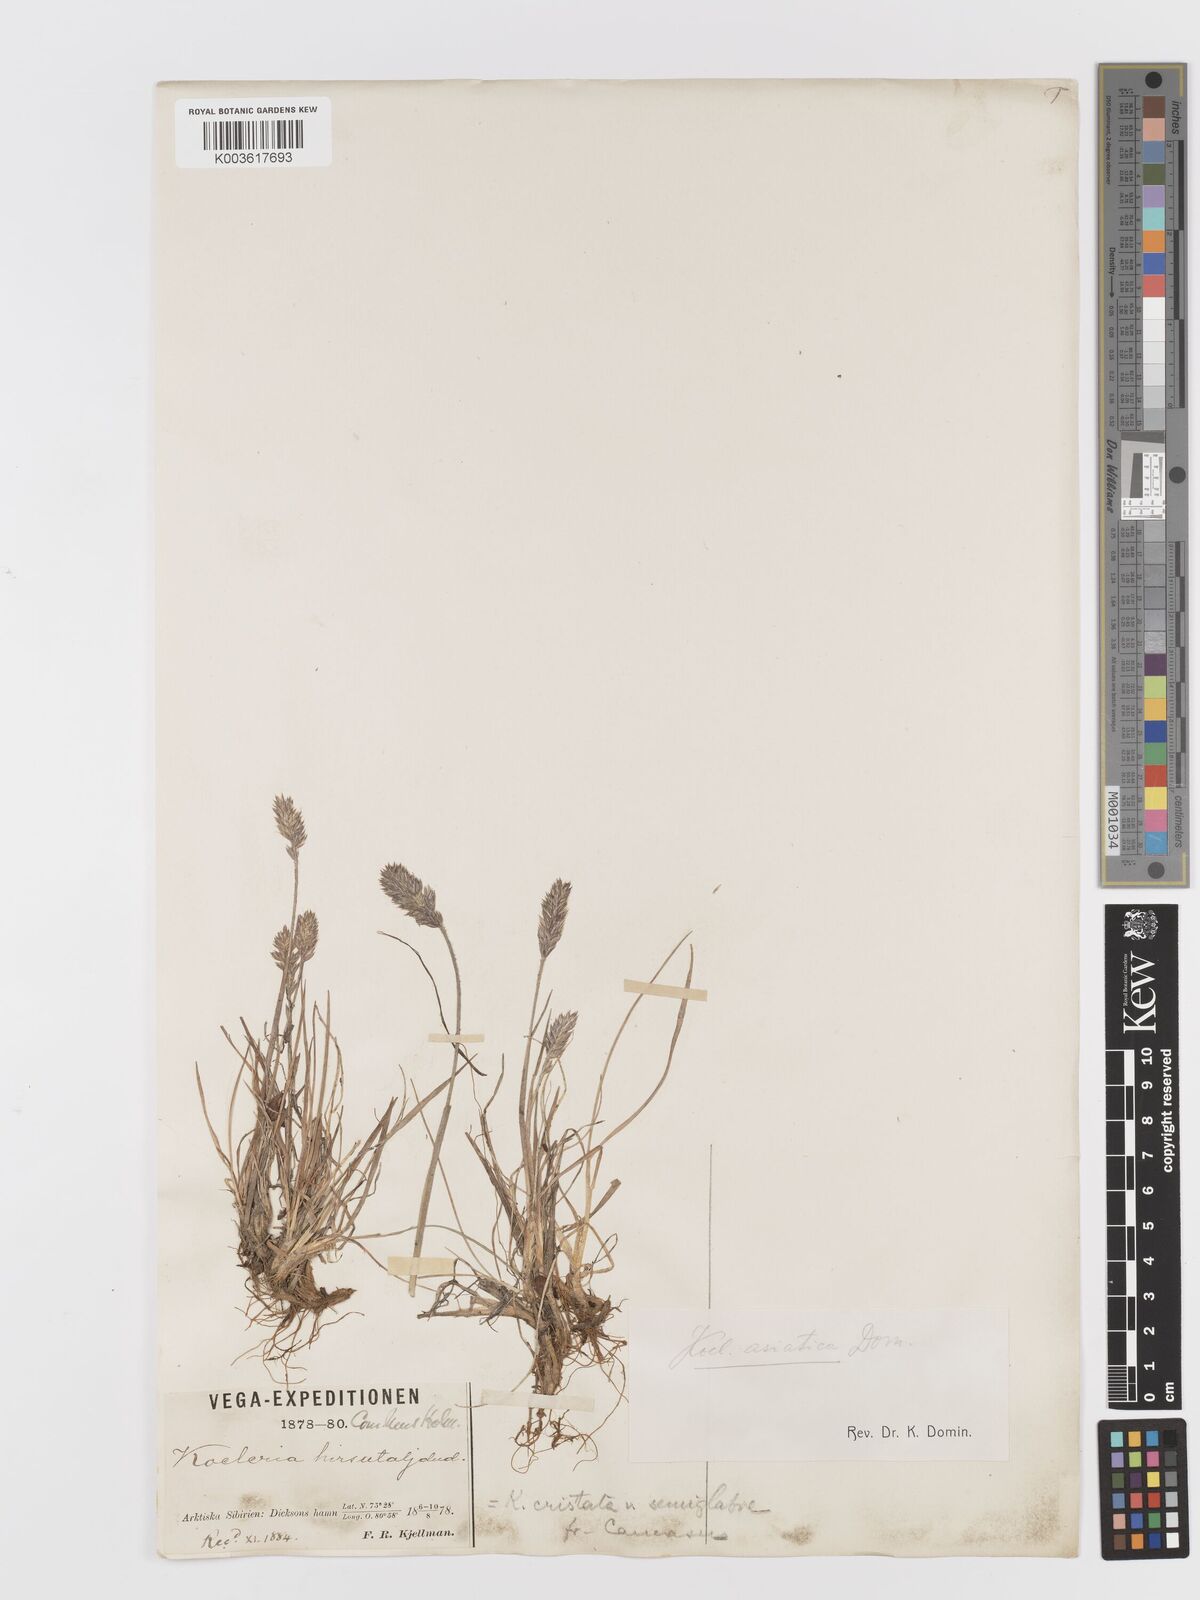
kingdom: Plantae
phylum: Tracheophyta
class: Liliopsida
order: Poales
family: Poaceae
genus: Koeleria
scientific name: Koeleria asiatica
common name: Eurasian junegrass
